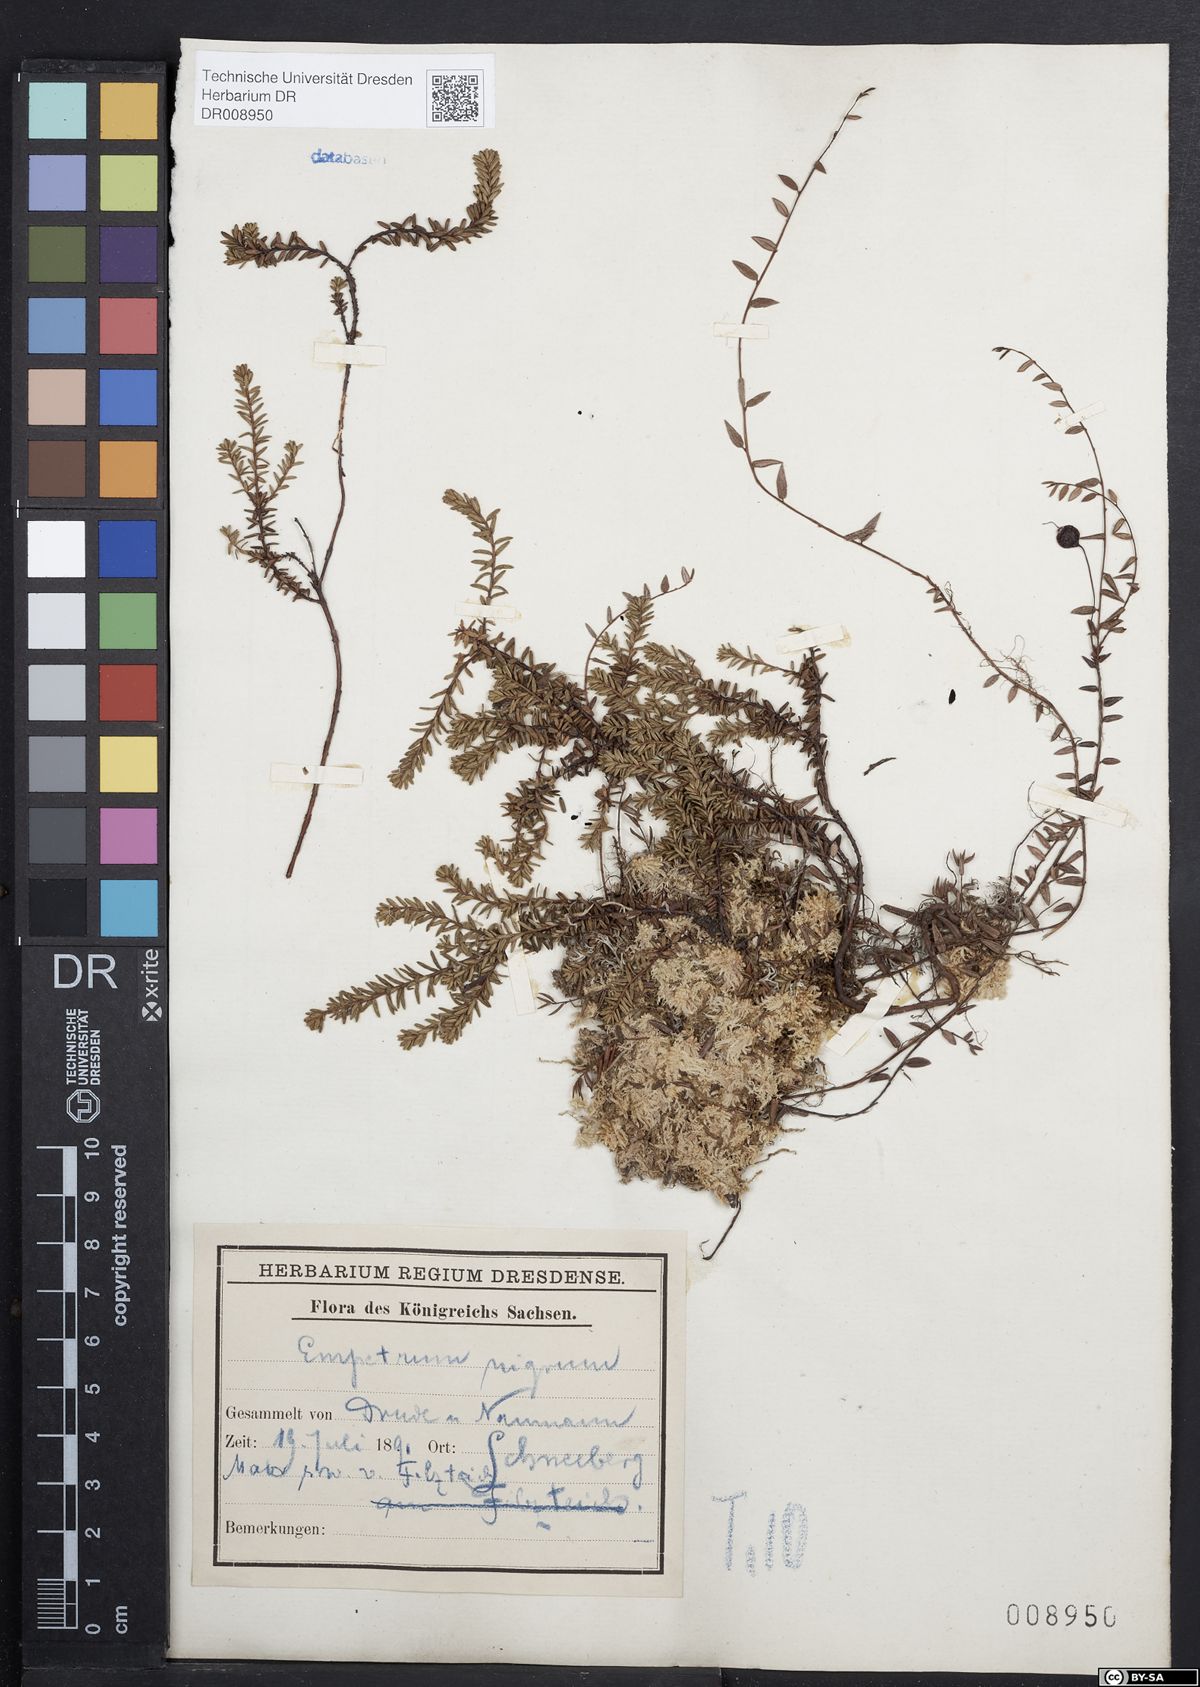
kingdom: Plantae
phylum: Tracheophyta
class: Magnoliopsida
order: Ericales
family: Ericaceae
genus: Empetrum
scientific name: Empetrum nigrum
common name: Black crowberry
